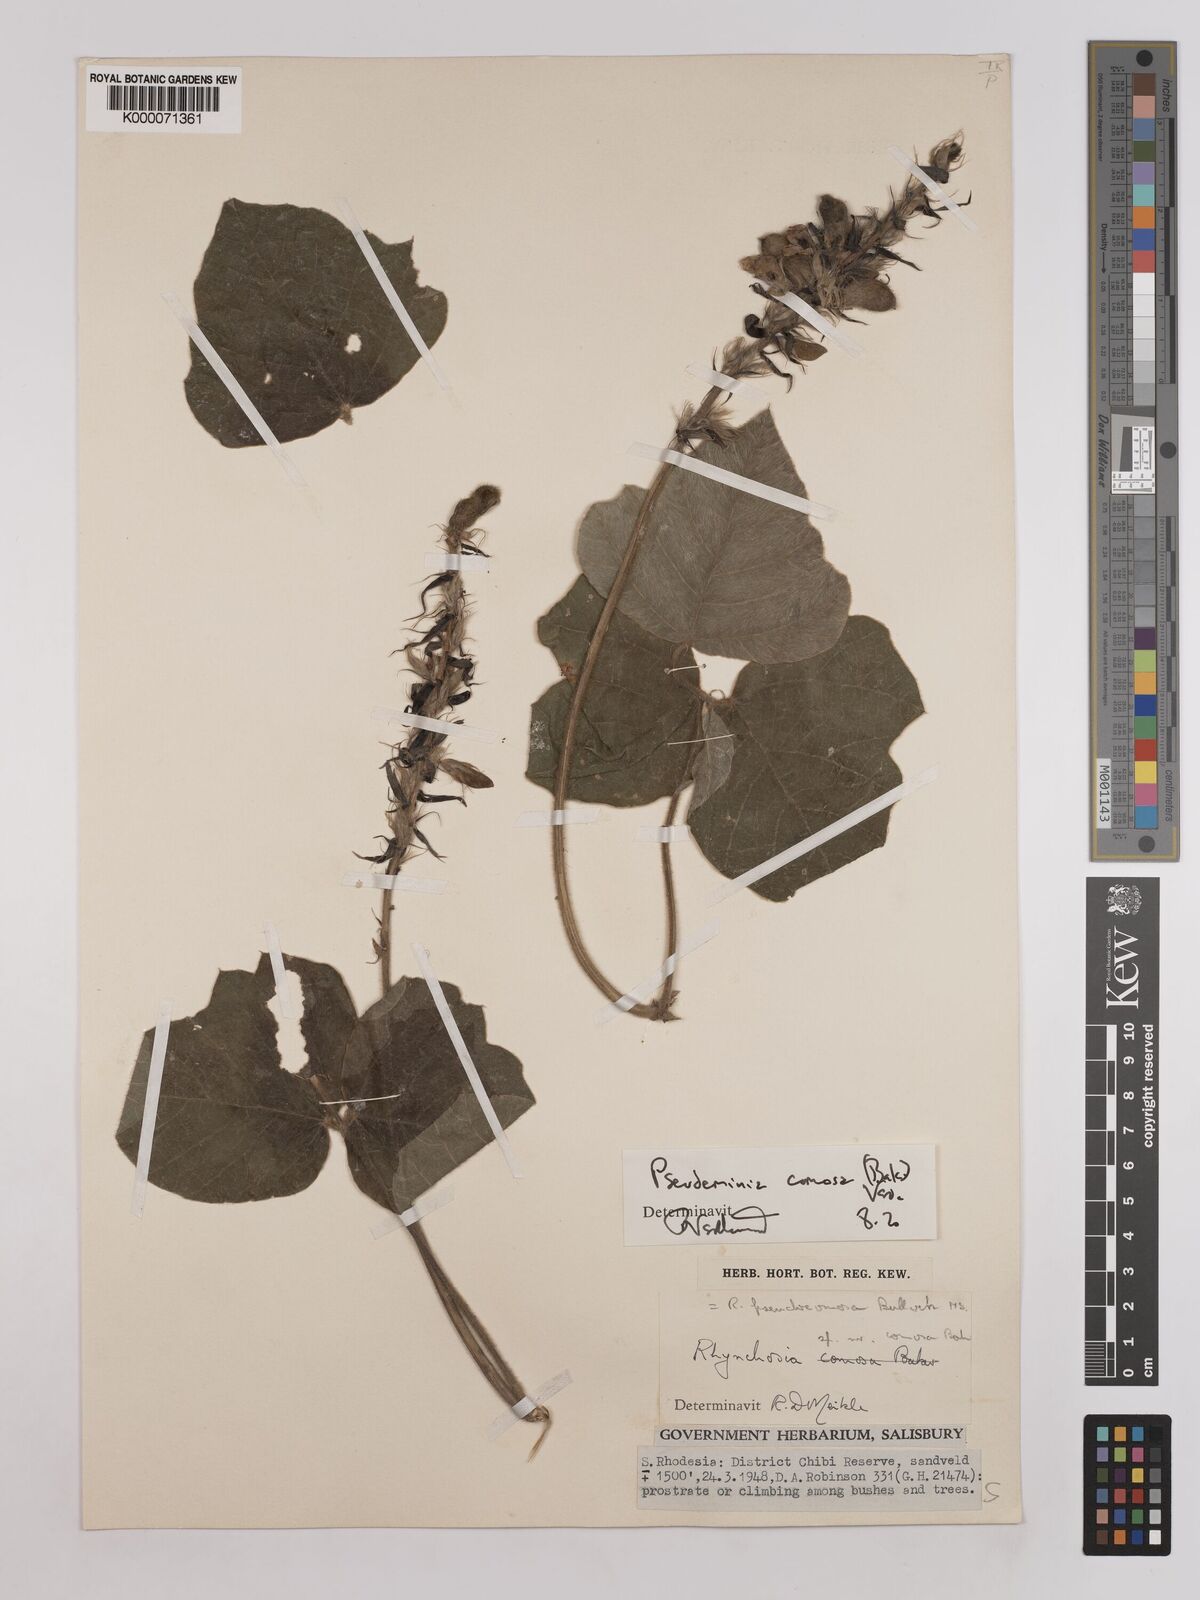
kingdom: Plantae
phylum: Tracheophyta
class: Magnoliopsida
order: Fabales
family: Fabaceae
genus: Pseudeminia
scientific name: Pseudeminia comosa
